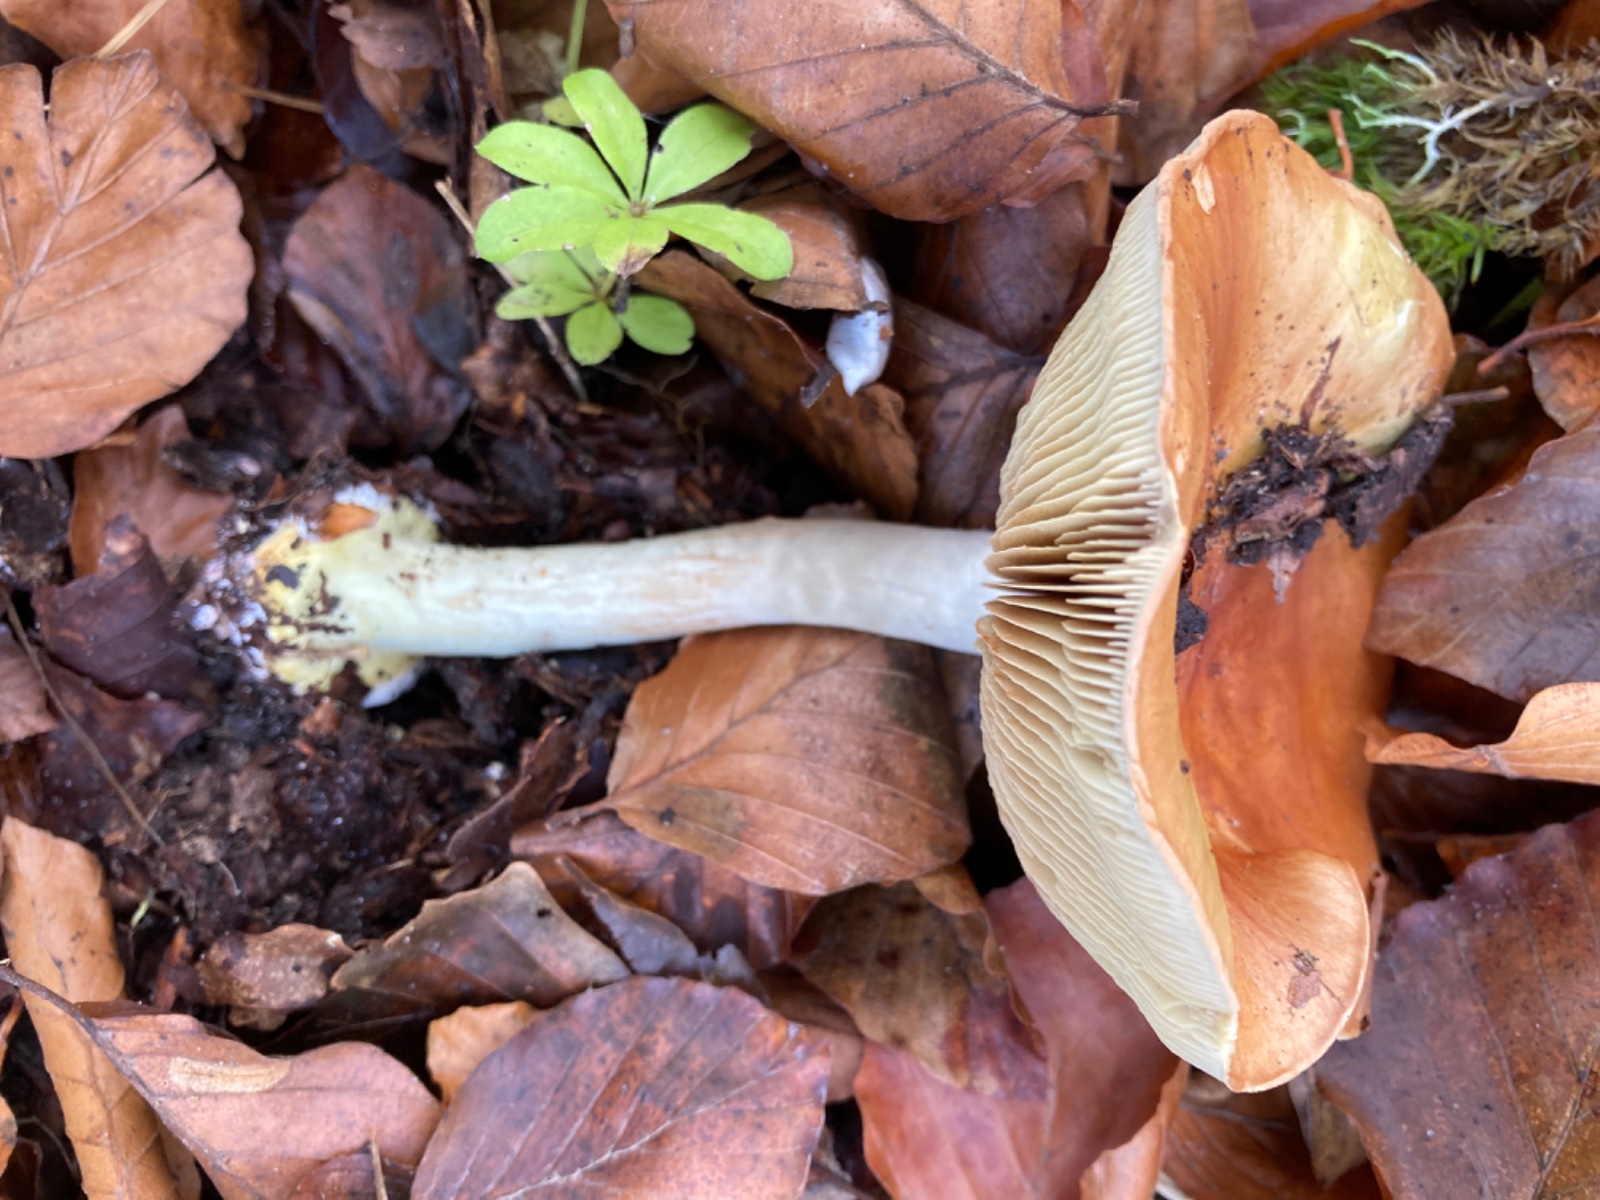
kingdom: Fungi
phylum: Basidiomycota
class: Agaricomycetes
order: Agaricales
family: Cortinariaceae
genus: Cortinarius
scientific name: Cortinarius bergeronii
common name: prægtig slørhat
